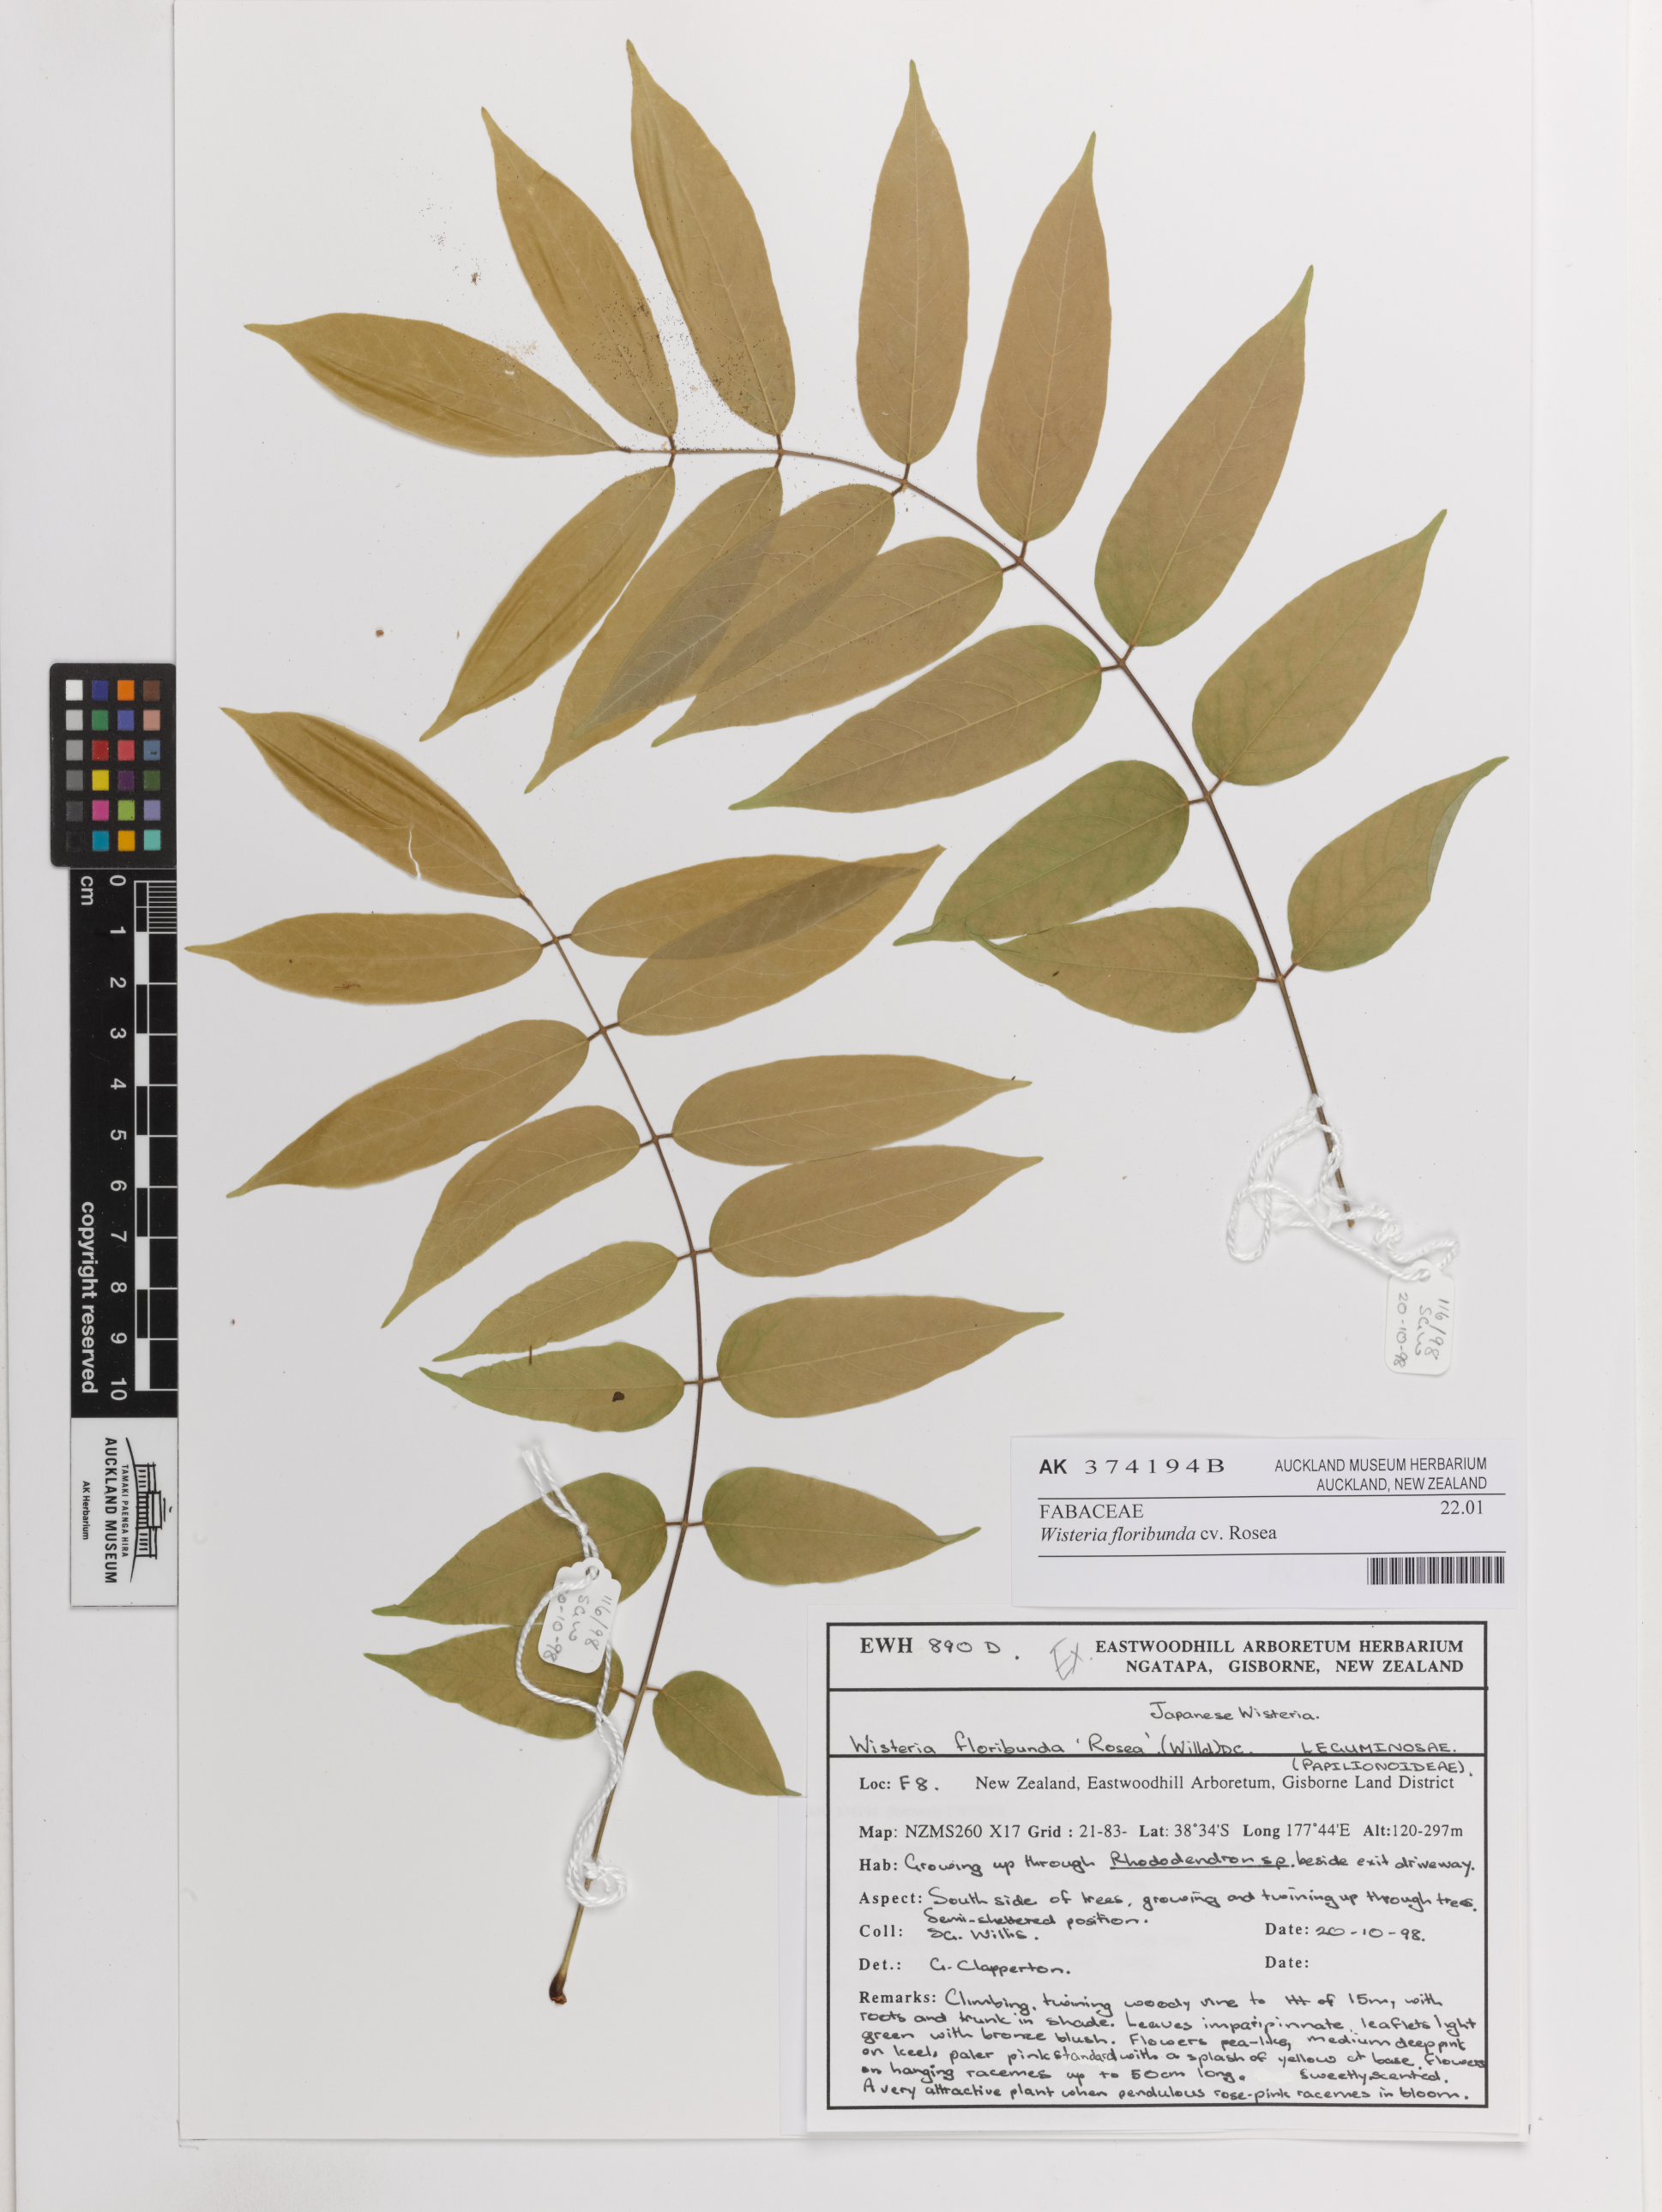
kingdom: Plantae
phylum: Tracheophyta
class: Magnoliopsida
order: Fabales
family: Fabaceae
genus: Wisteria
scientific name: Wisteria floribunda
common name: Japanese wisteria
